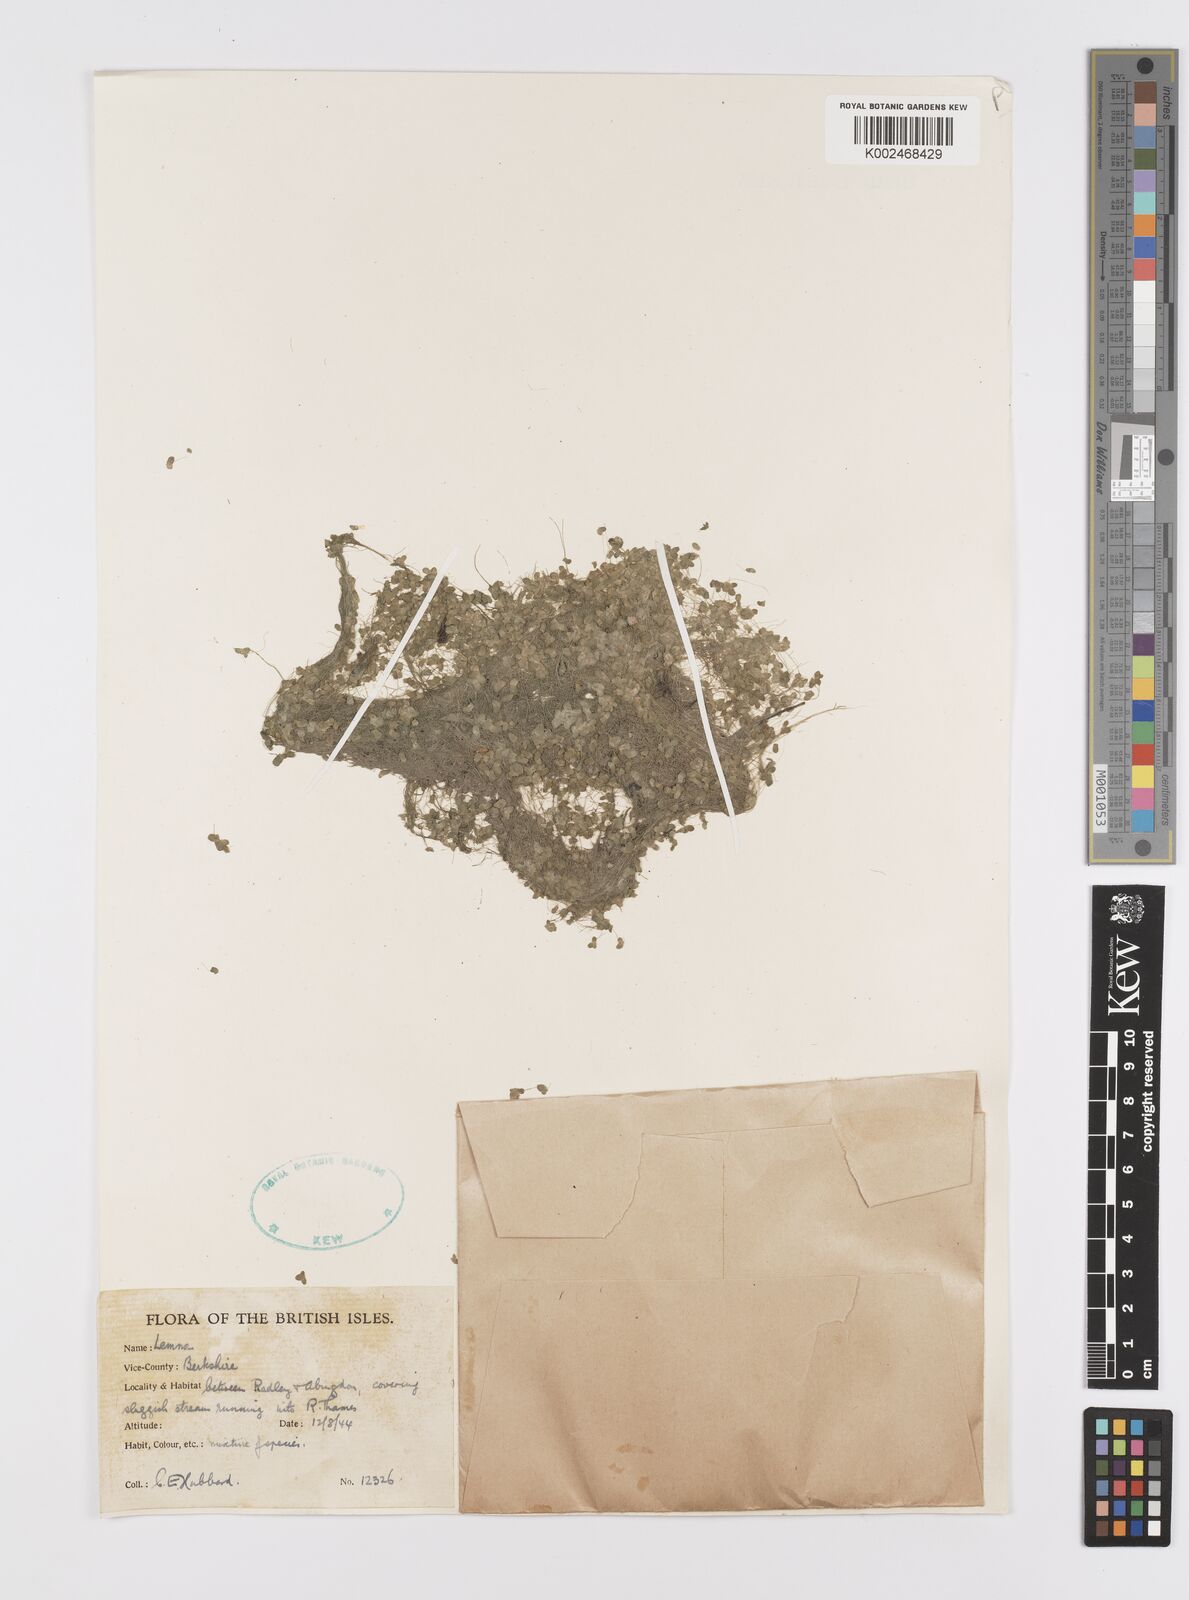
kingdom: Plantae
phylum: Tracheophyta
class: Liliopsida
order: Alismatales
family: Araceae
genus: Wolffia
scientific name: Wolffia
